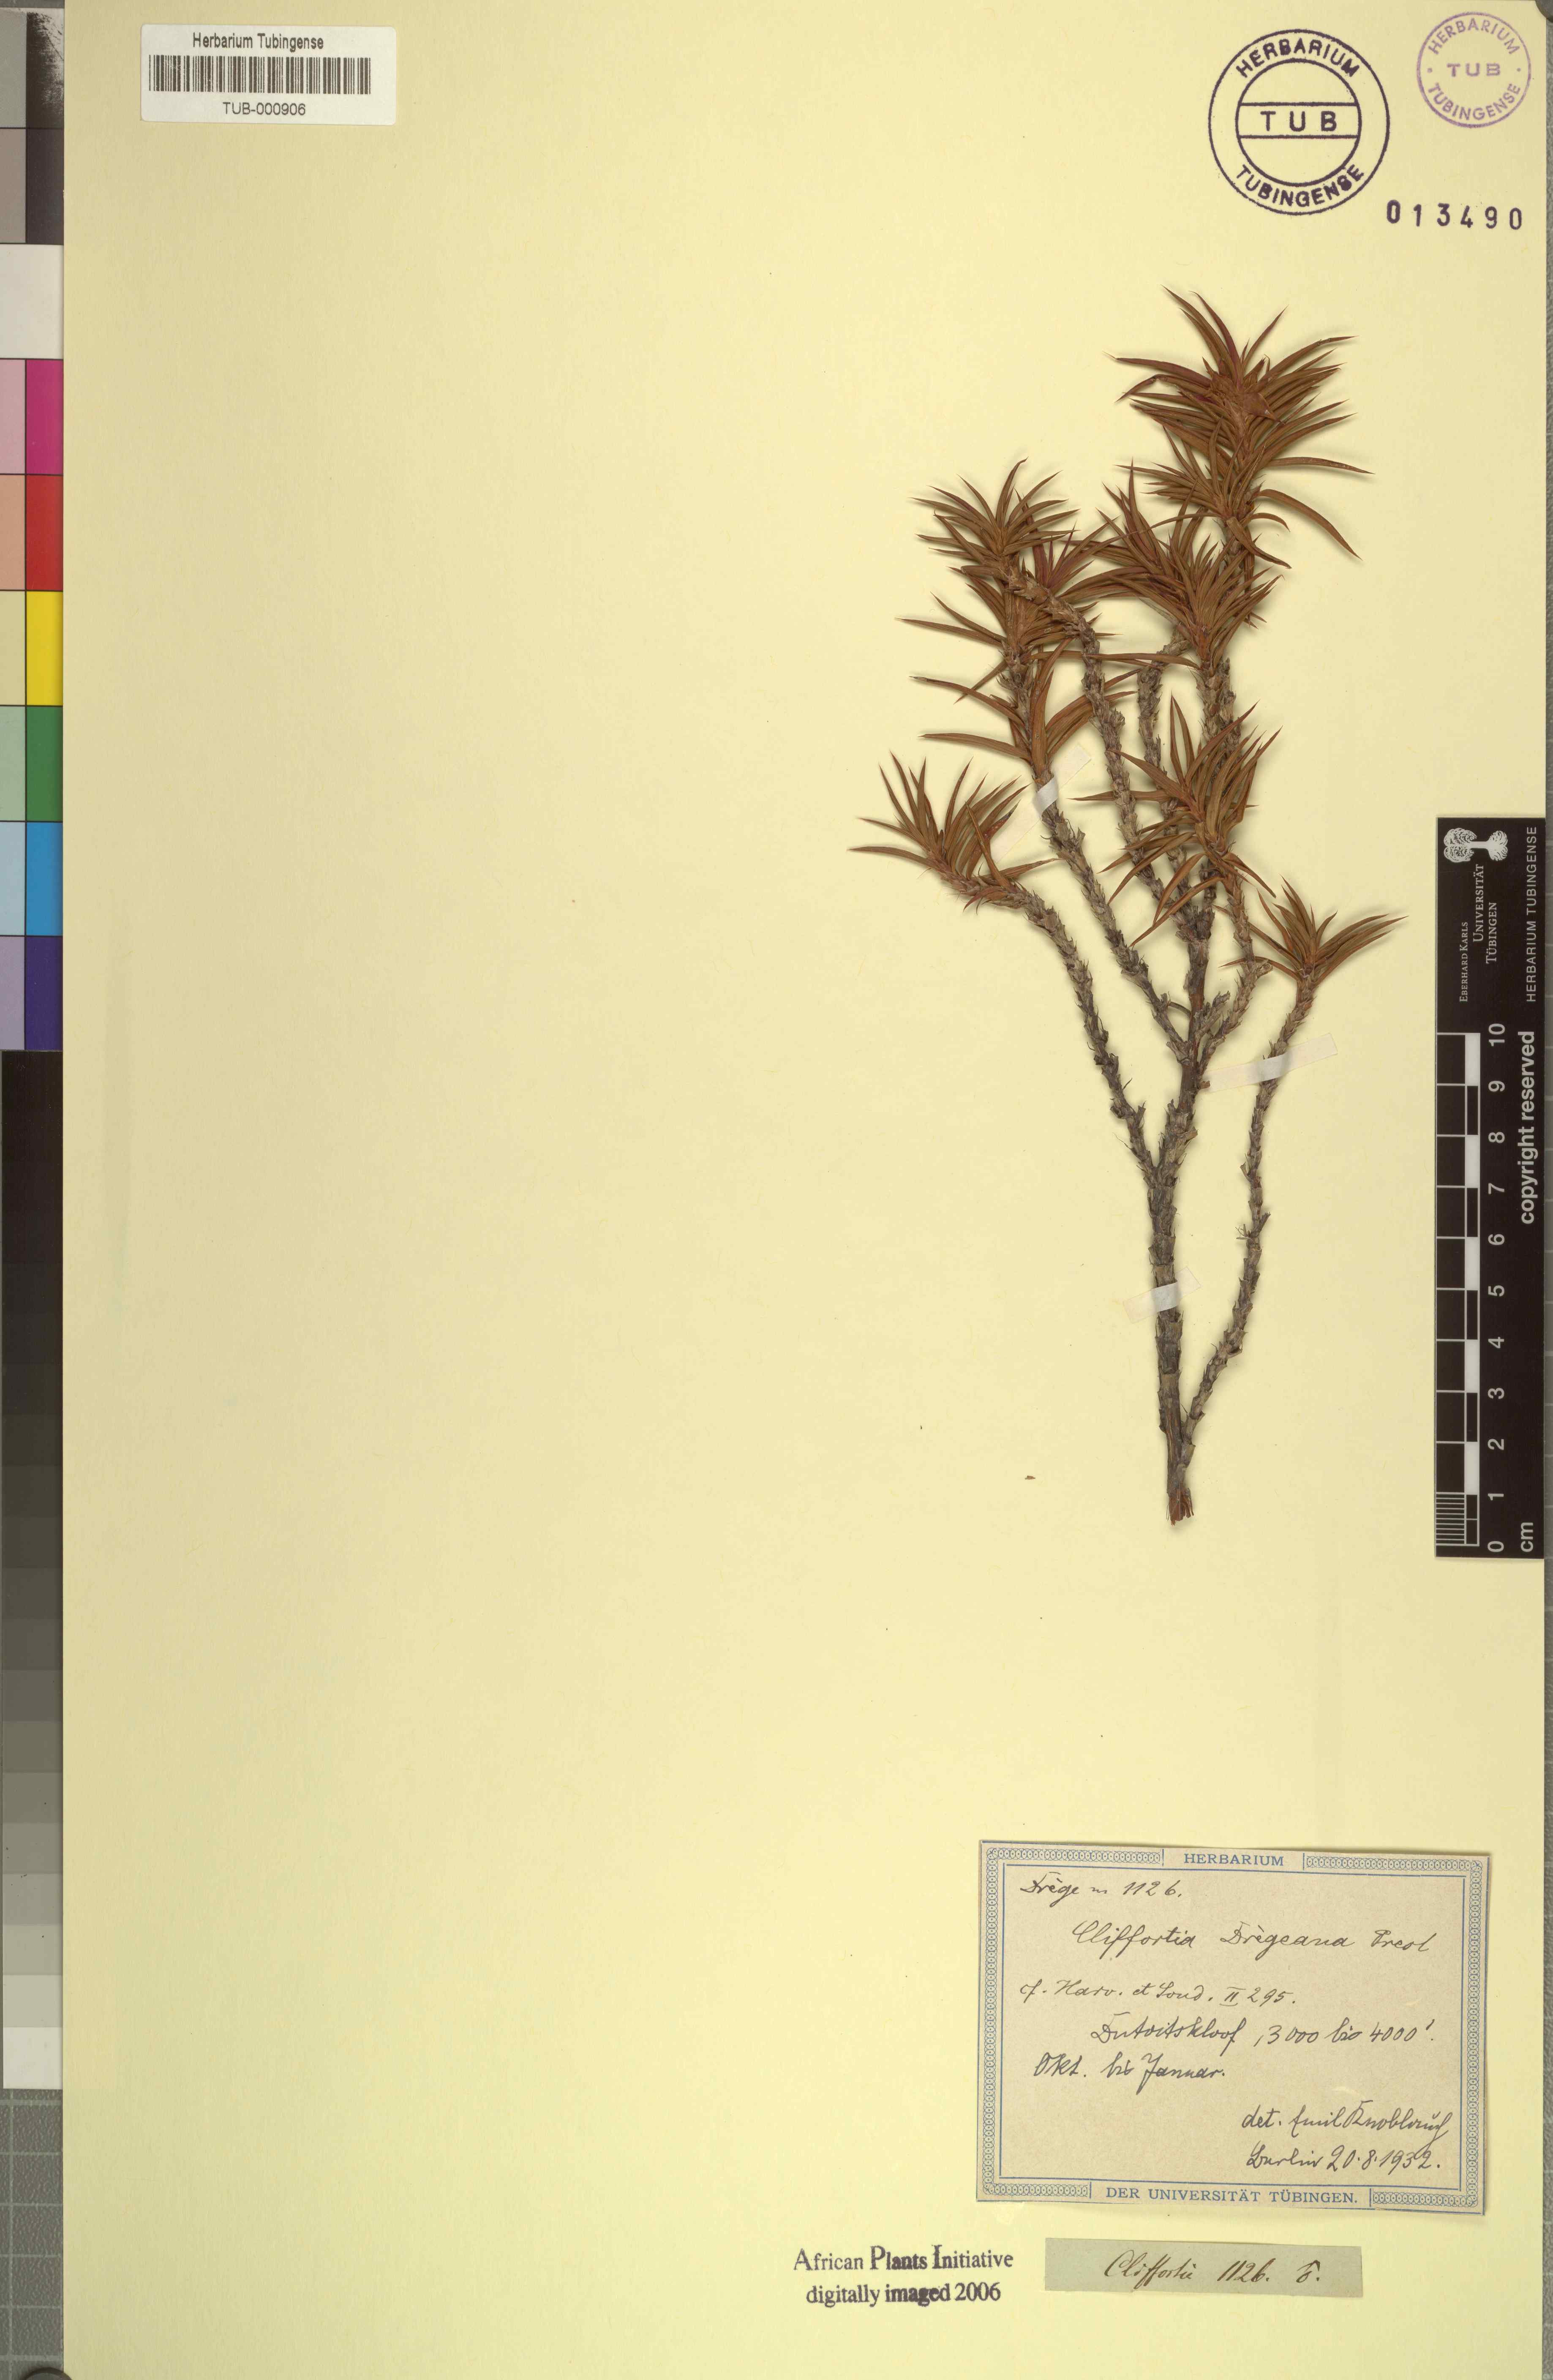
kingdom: Plantae
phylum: Tracheophyta
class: Magnoliopsida
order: Rosales
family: Rosaceae
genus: Cliffortia
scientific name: Cliffortia dregeana
